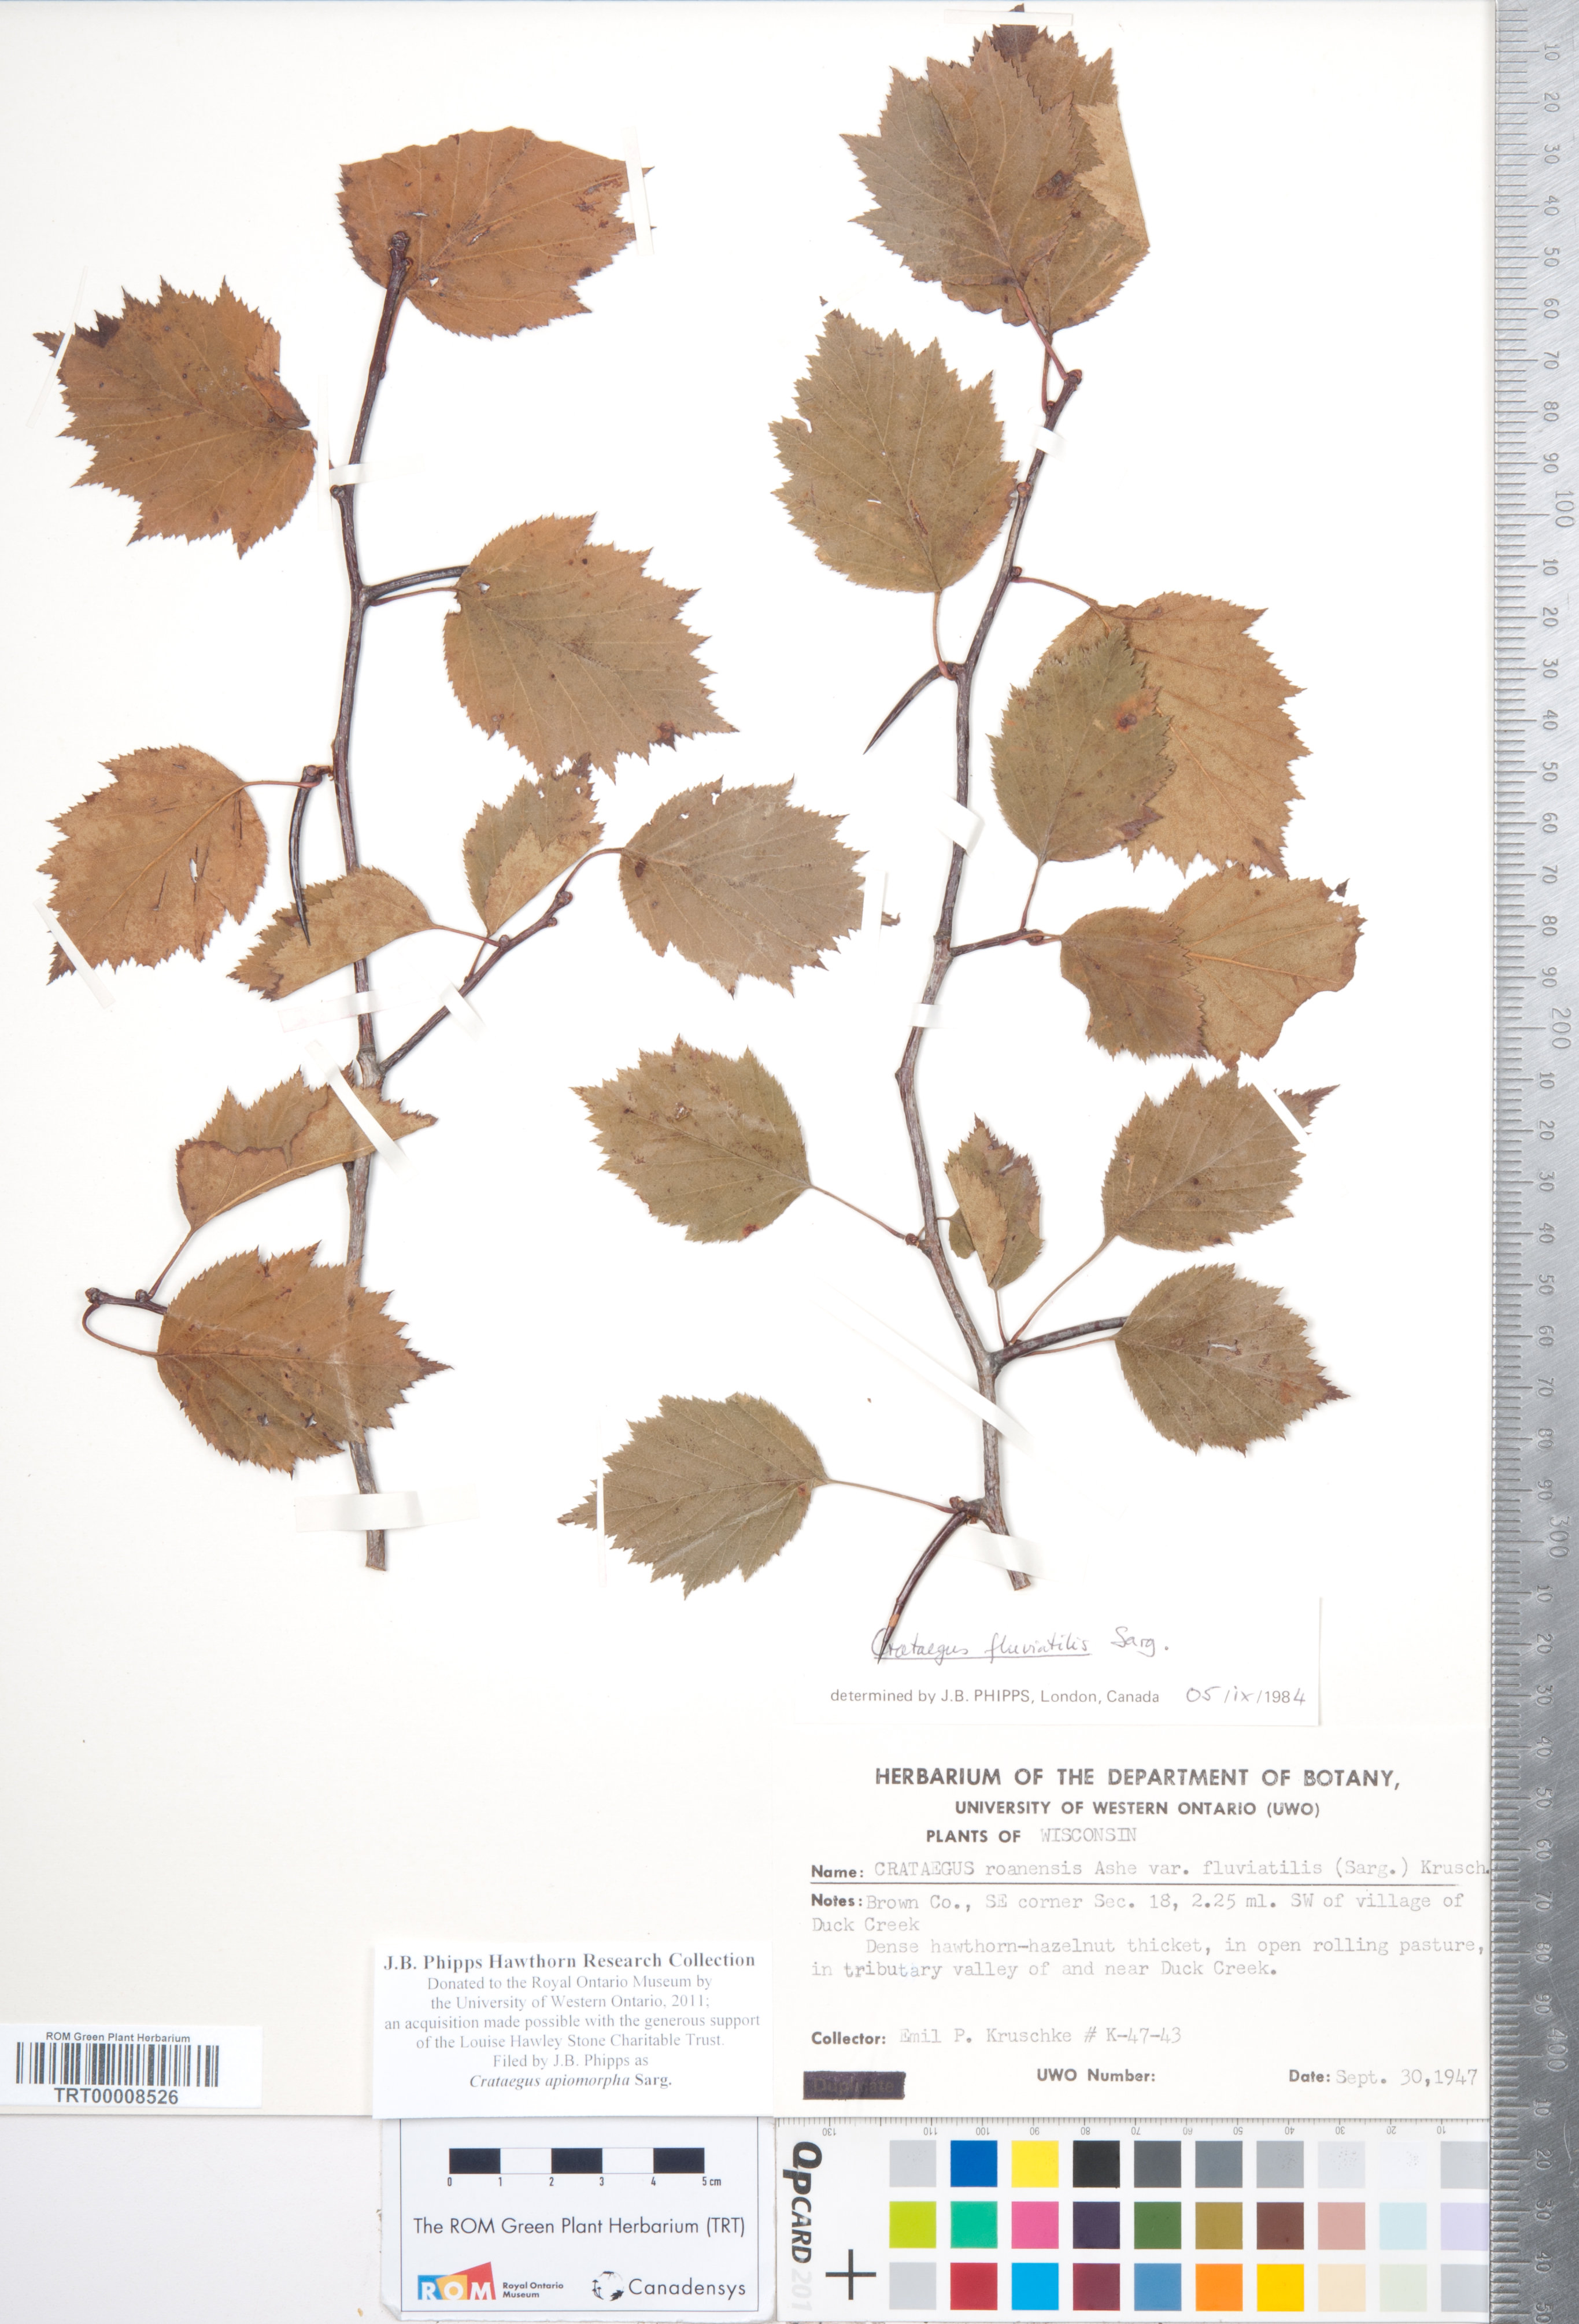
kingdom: Plantae
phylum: Tracheophyta
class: Magnoliopsida
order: Rosales
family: Rosaceae
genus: Crataegus
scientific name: Crataegus fluviatilis
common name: Fort sheridan hawthorn
